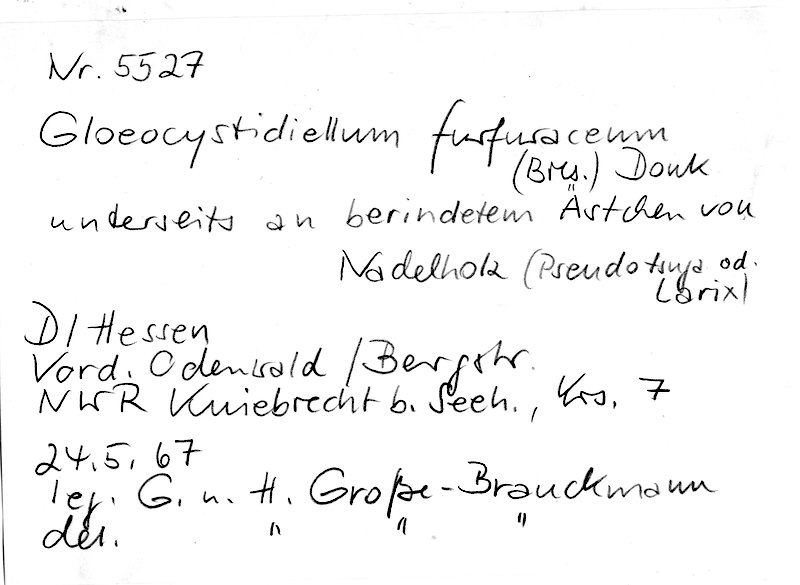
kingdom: Plantae
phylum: Tracheophyta
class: Pinopsida
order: Pinales
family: Pinaceae
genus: Pseudotsuga
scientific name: Pseudotsuga
